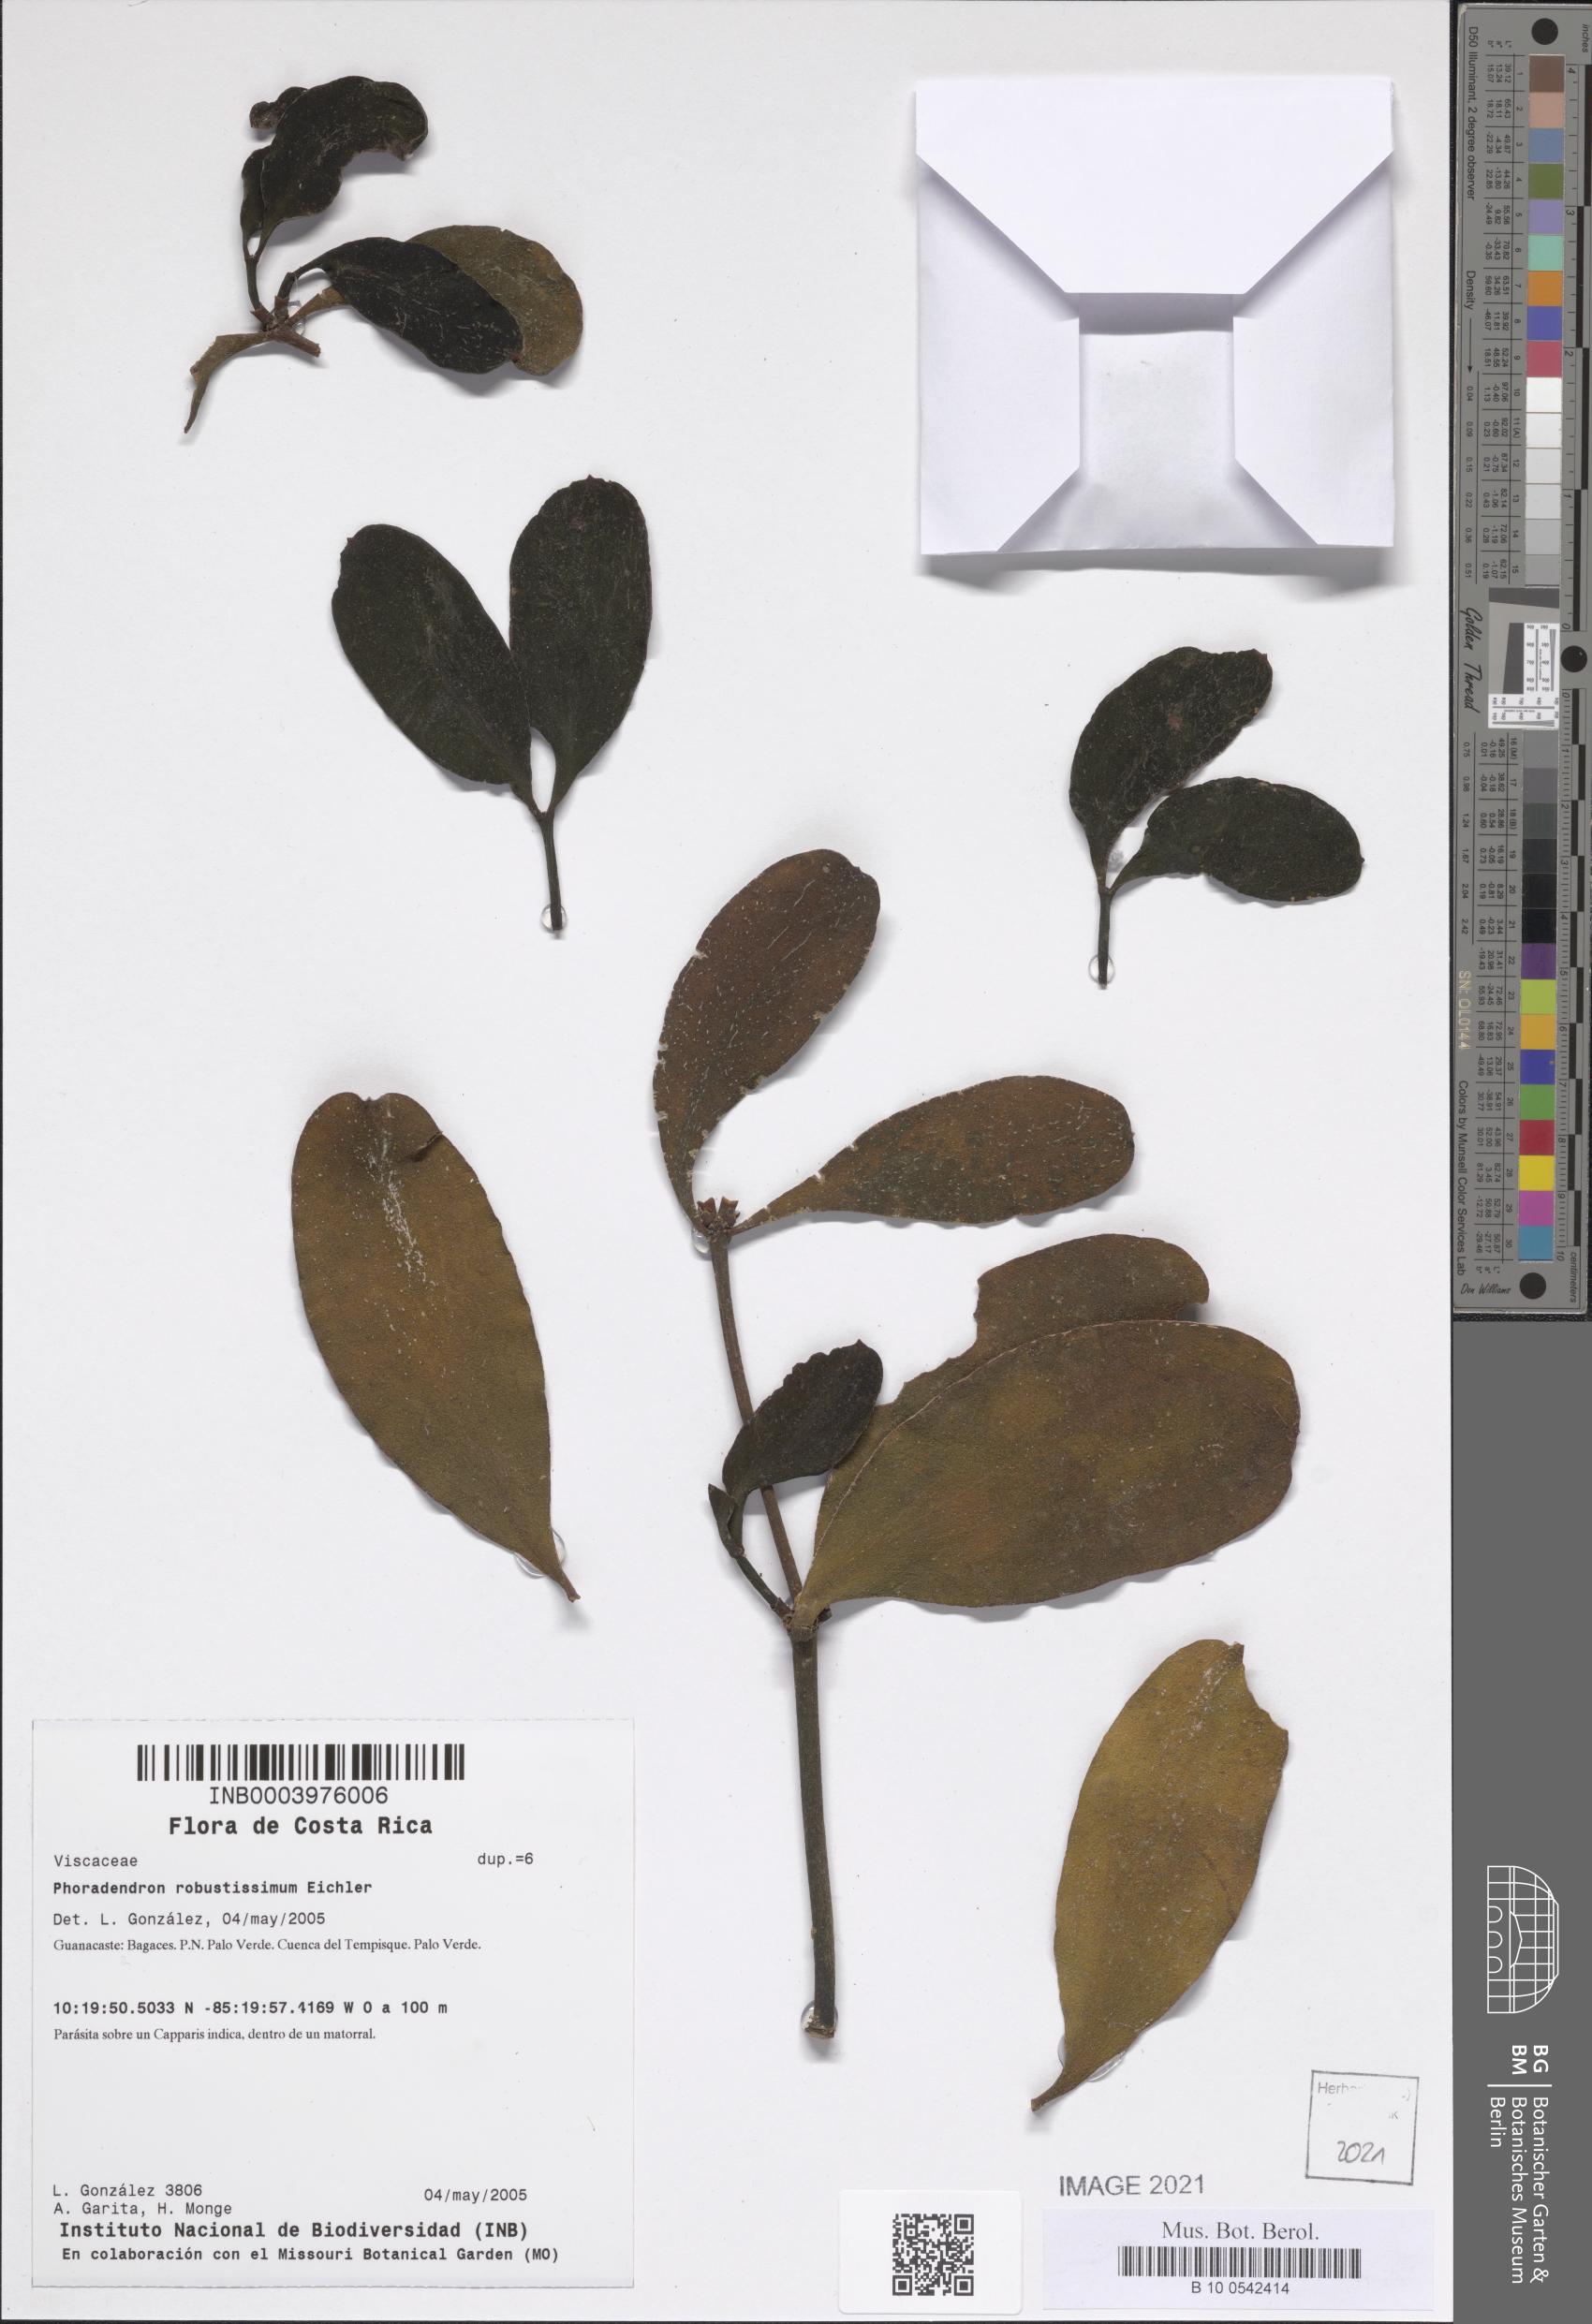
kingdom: Plantae
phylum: Tracheophyta
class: Magnoliopsida
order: Santalales
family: Viscaceae
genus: Phoradendron
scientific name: Phoradendron robustissimum
